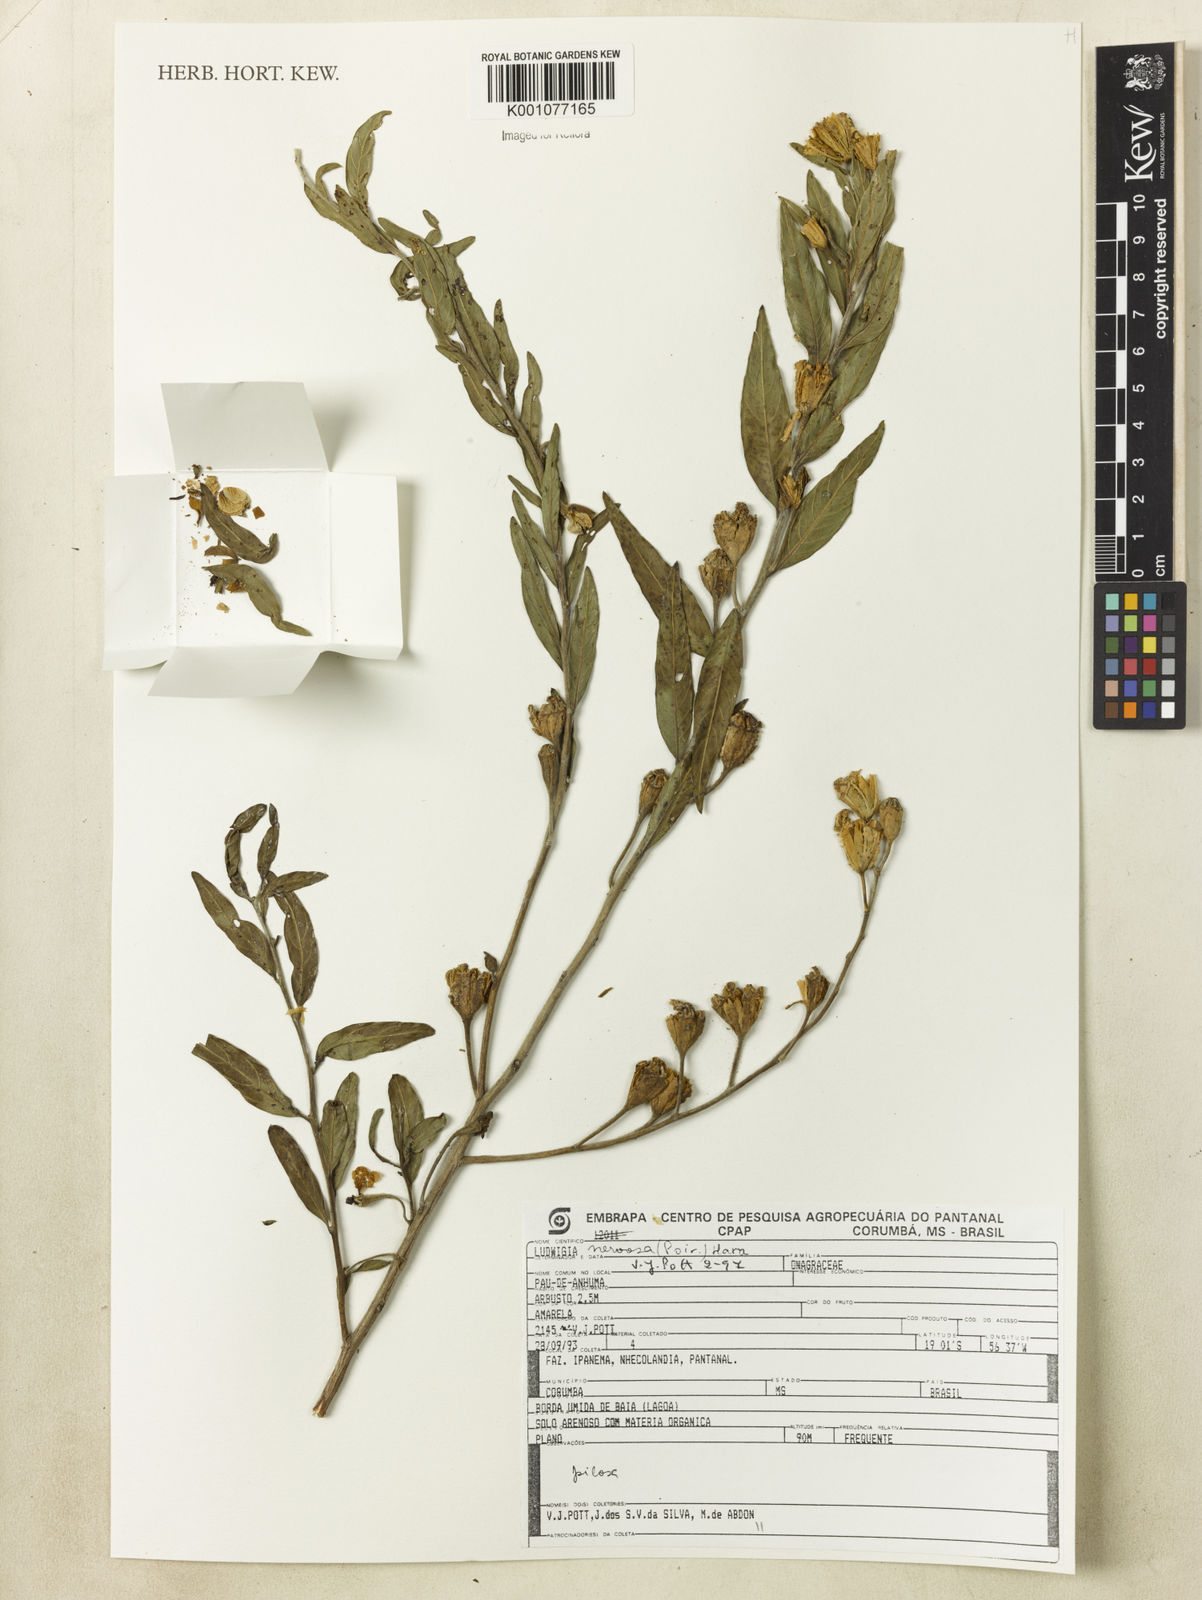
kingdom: Plantae
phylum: Tracheophyta
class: Magnoliopsida
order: Myrtales
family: Onagraceae
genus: Ludwigia
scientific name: Ludwigia nervosa
